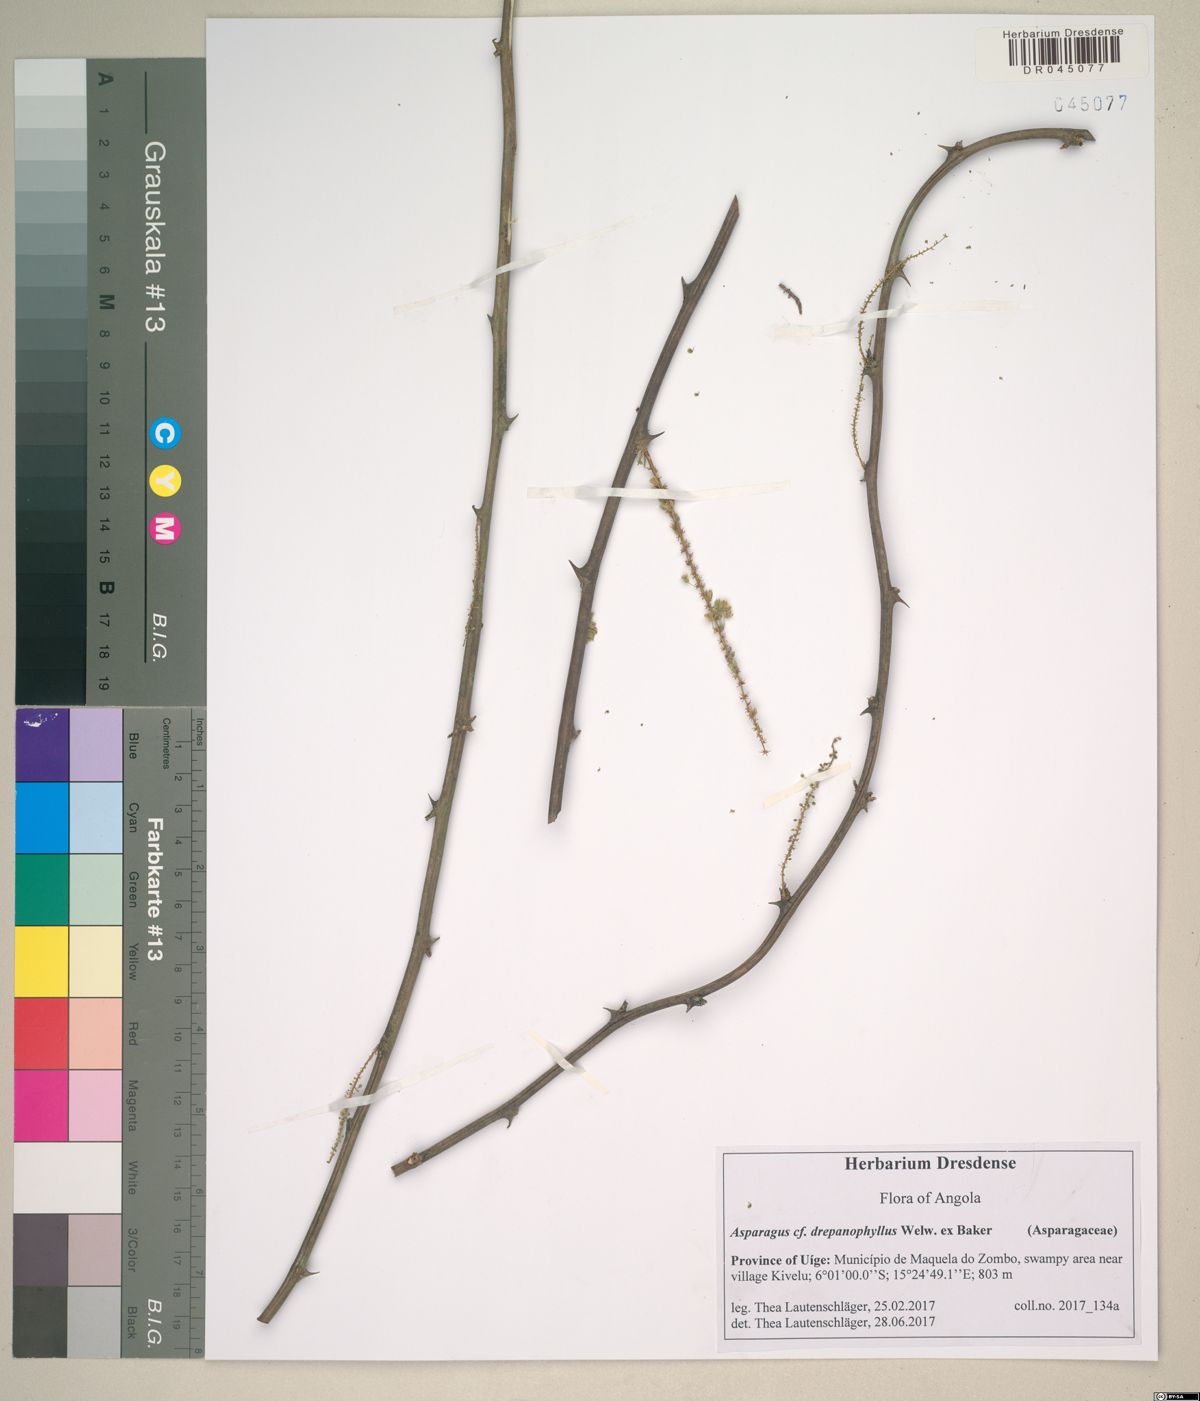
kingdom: Plantae
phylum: Tracheophyta
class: Liliopsida
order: Asparagales
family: Asparagaceae
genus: Asparagus
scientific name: Asparagus drepanophyllus
